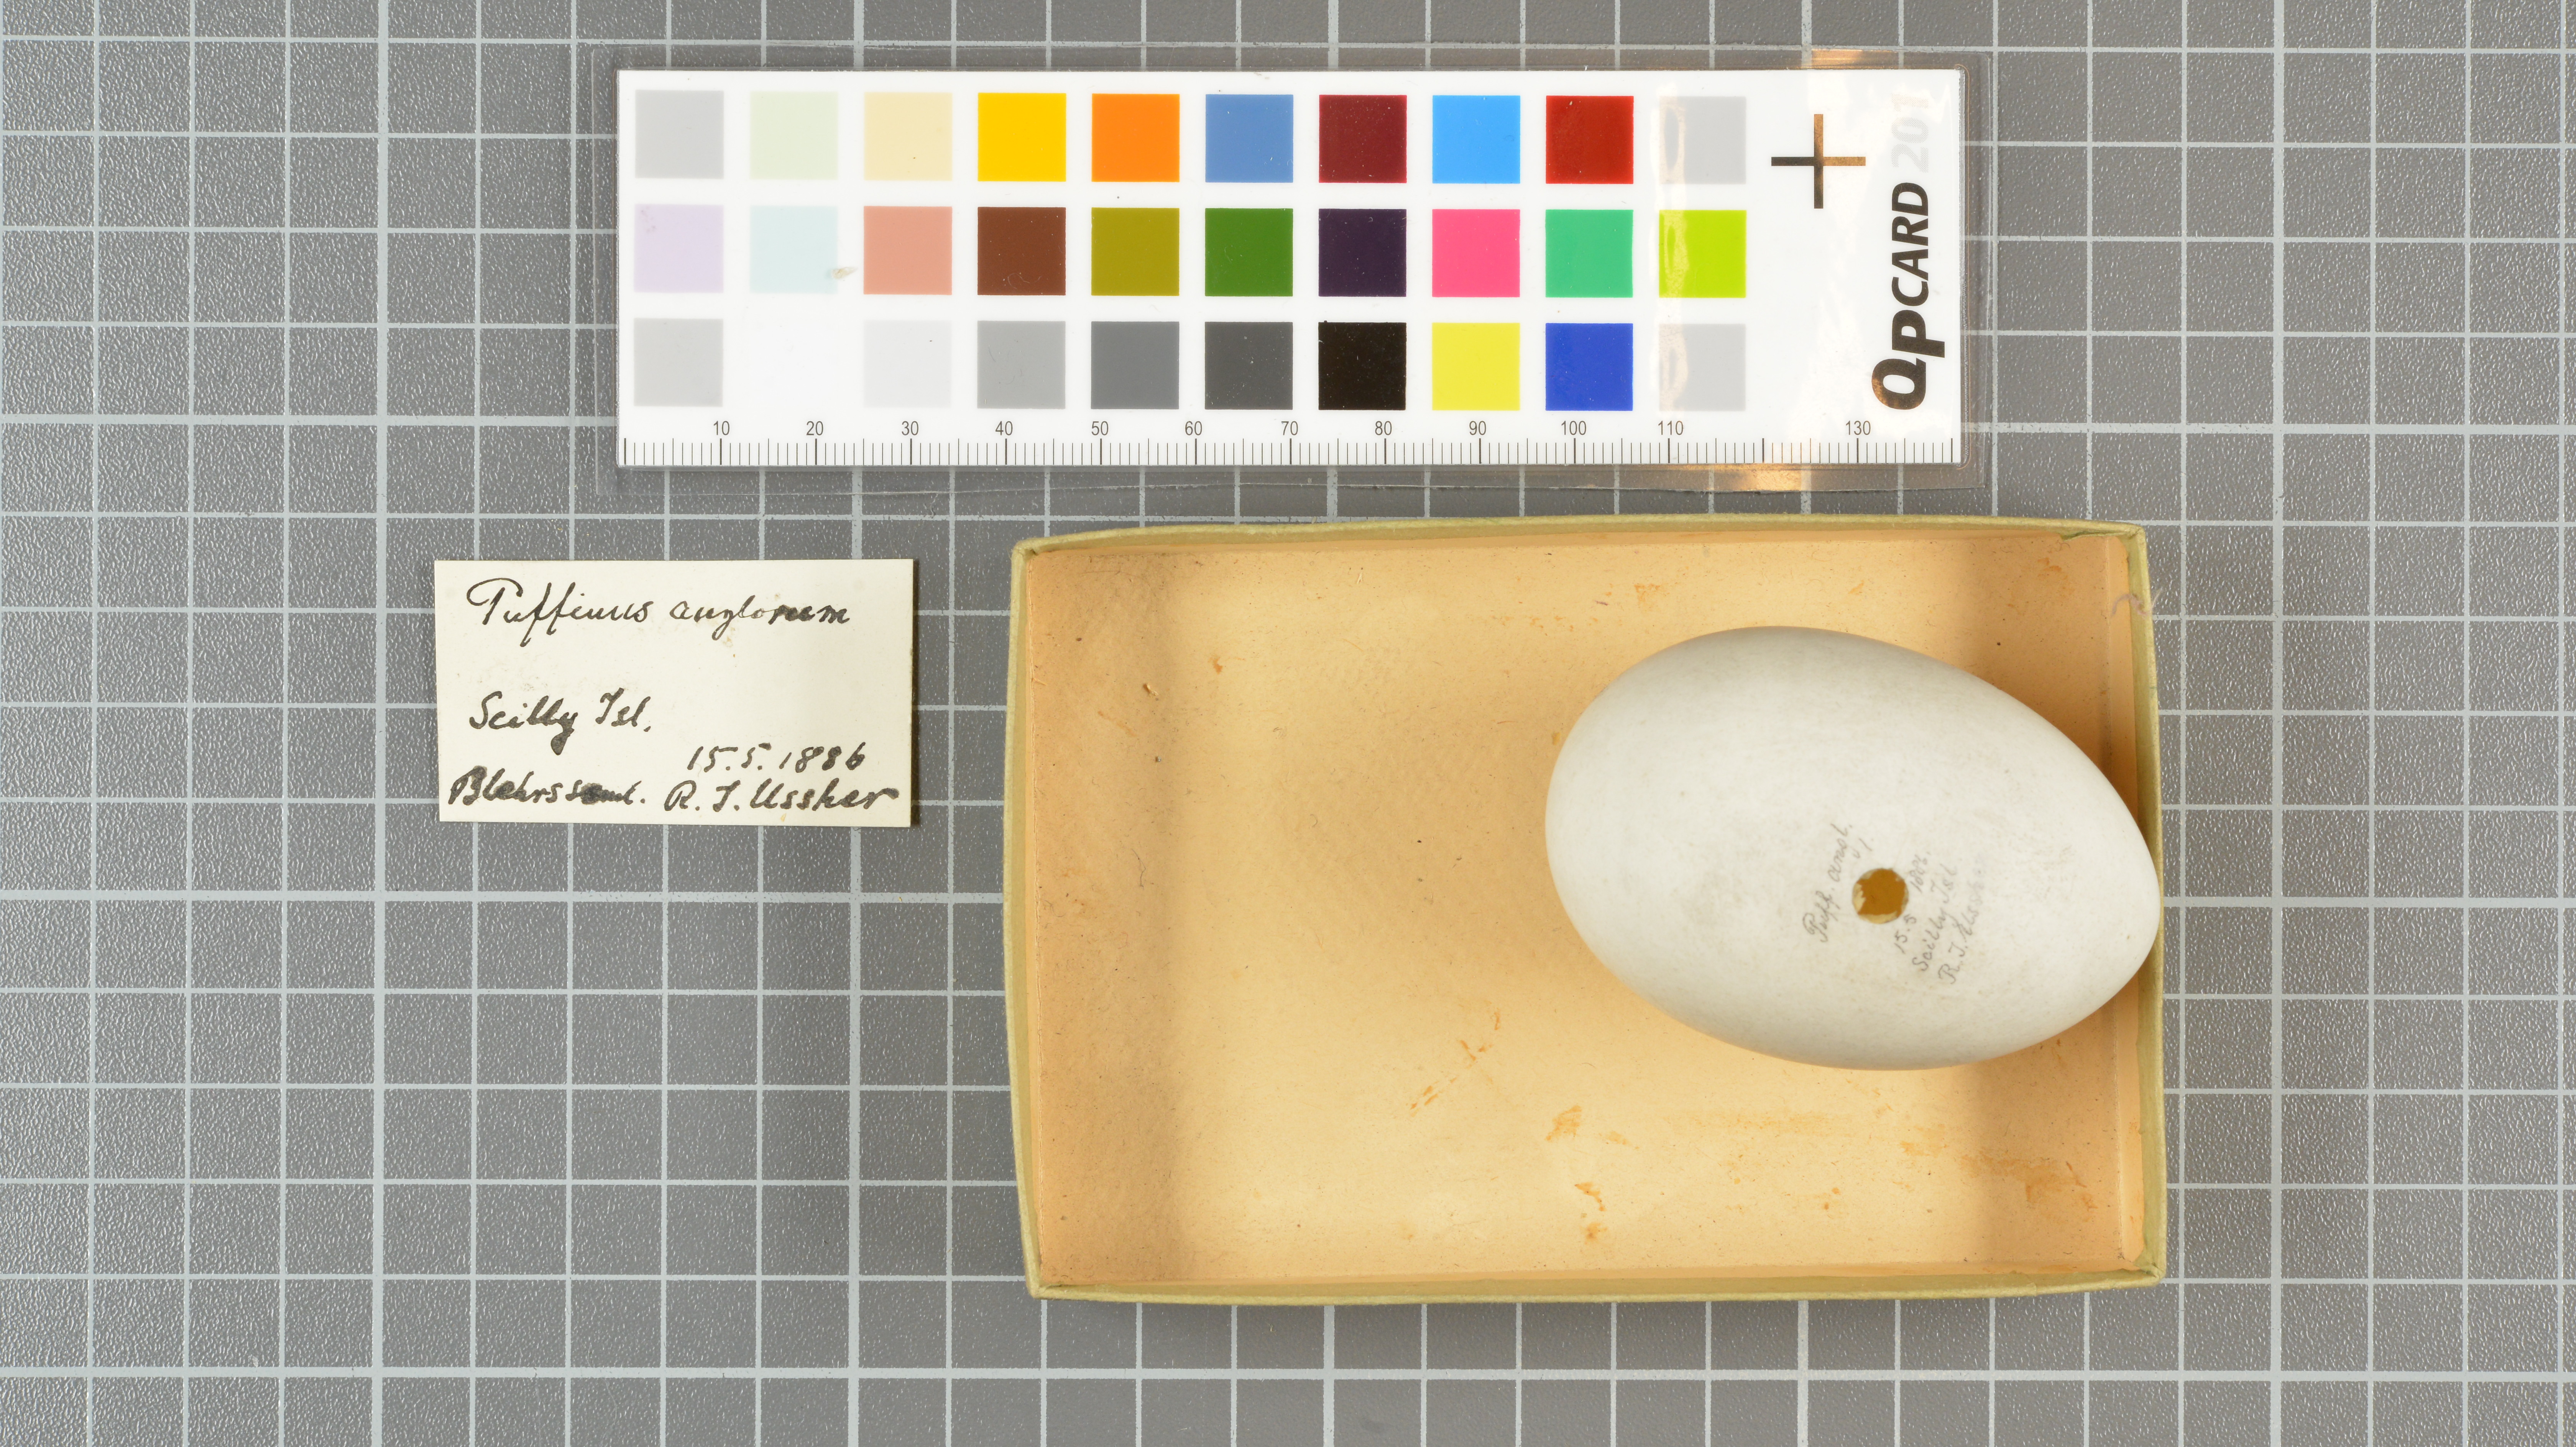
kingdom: Animalia
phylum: Chordata
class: Aves
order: Procellariiformes
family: Procellariidae
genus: Puffinus
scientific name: Puffinus puffinus
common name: Manx shearwater
